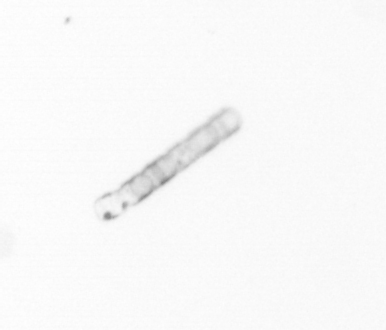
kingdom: Chromista
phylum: Ochrophyta
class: Bacillariophyceae
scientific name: Bacillariophyceae
